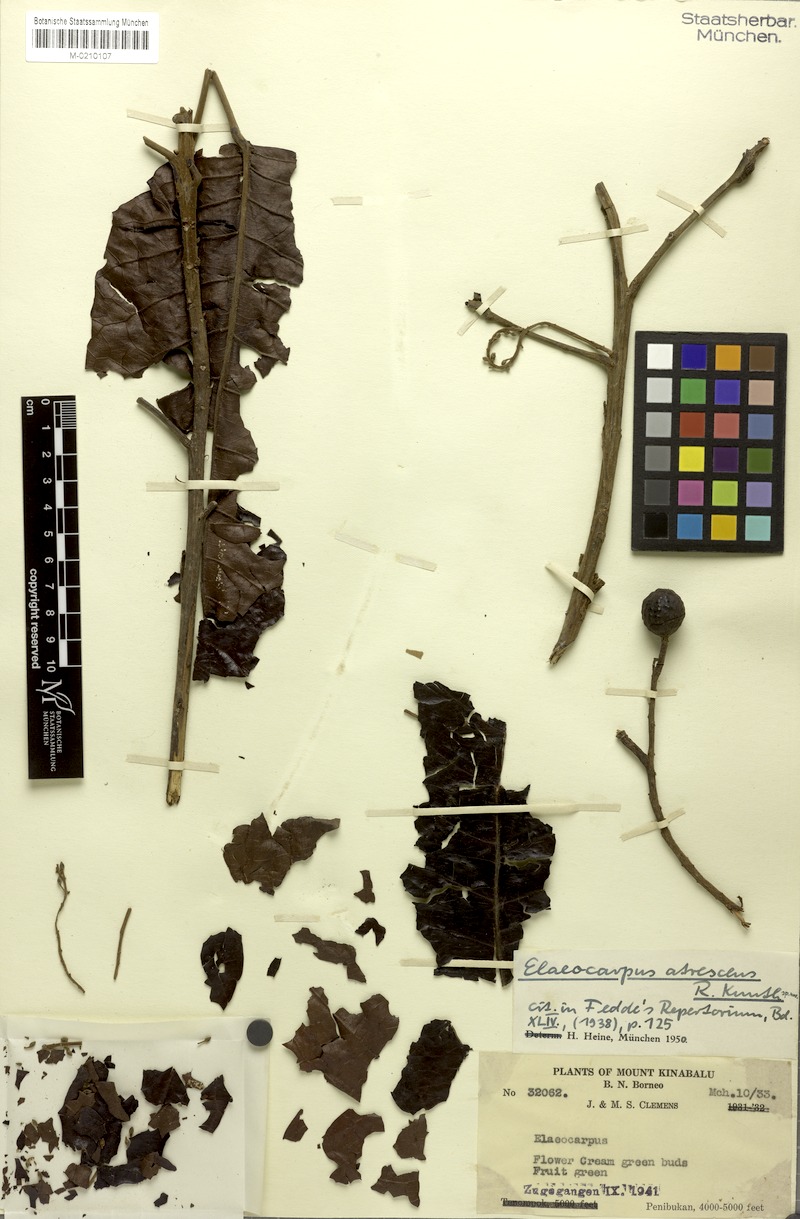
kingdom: Plantae
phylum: Tracheophyta
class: Magnoliopsida
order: Oxalidales
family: Elaeocarpaceae
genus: Elaeocarpus
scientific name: Elaeocarpus valetonii
